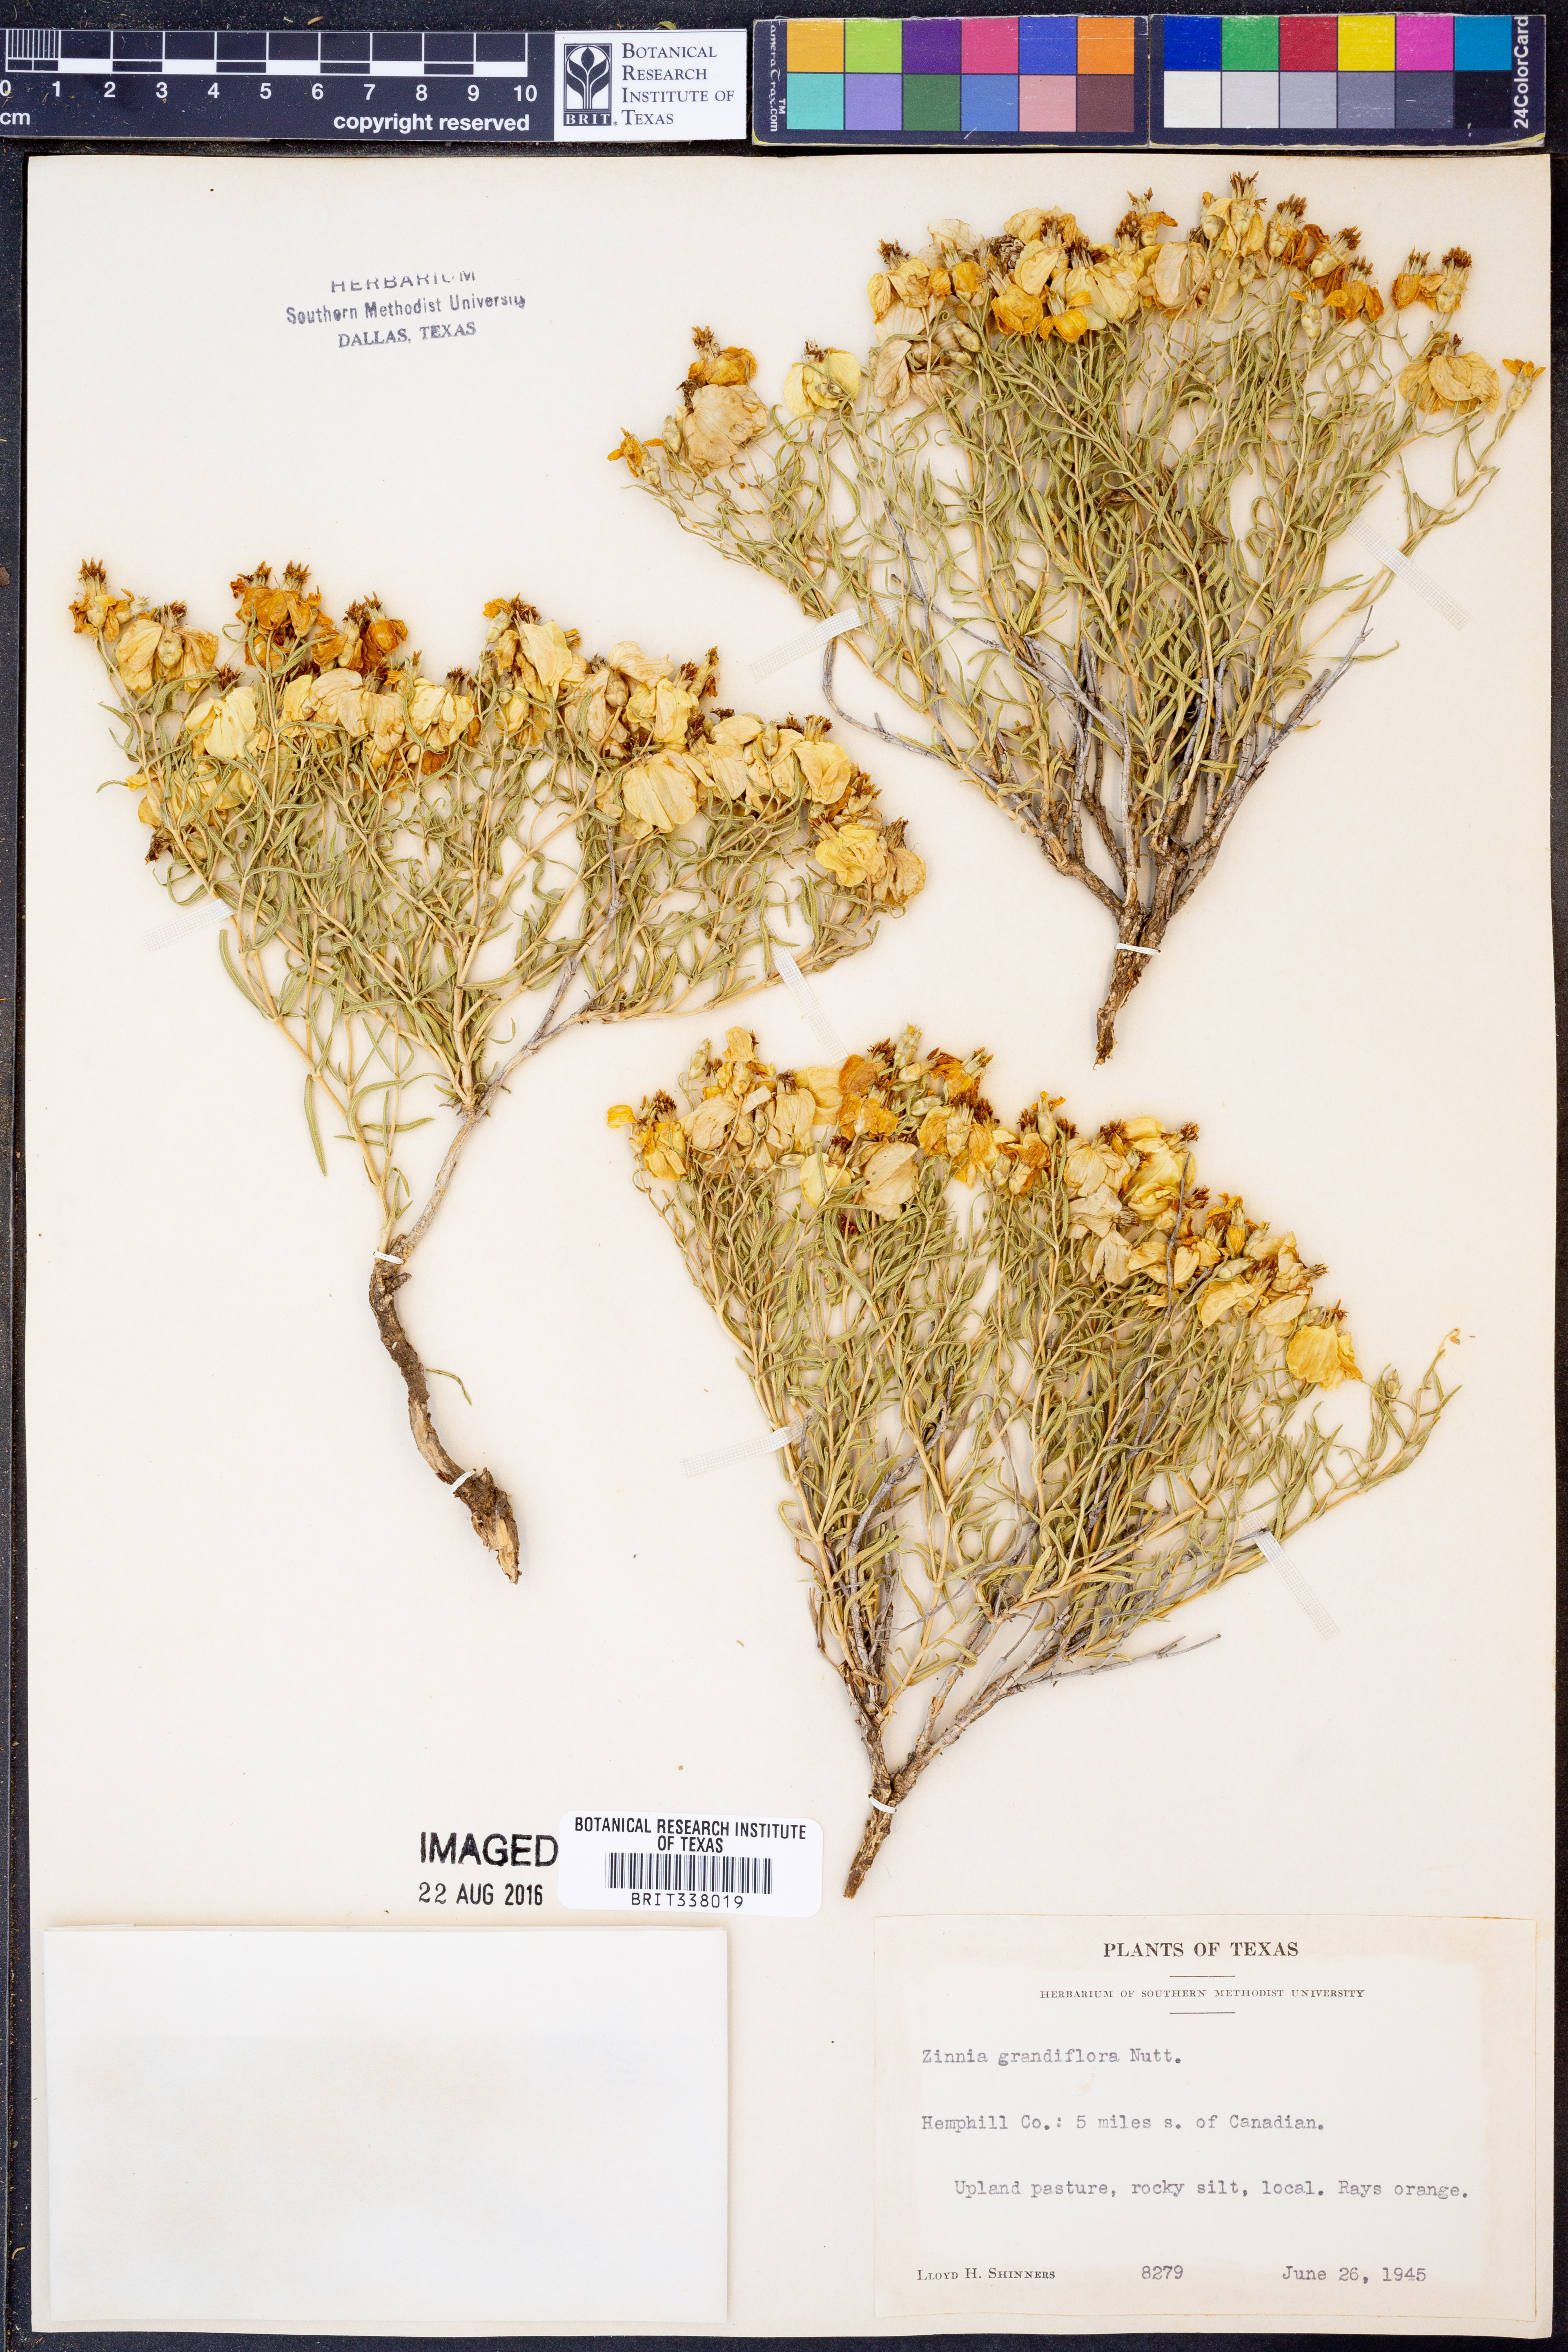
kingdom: Plantae
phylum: Tracheophyta
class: Magnoliopsida
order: Asterales
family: Asteraceae
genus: Zinnia
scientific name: Zinnia grandiflora
